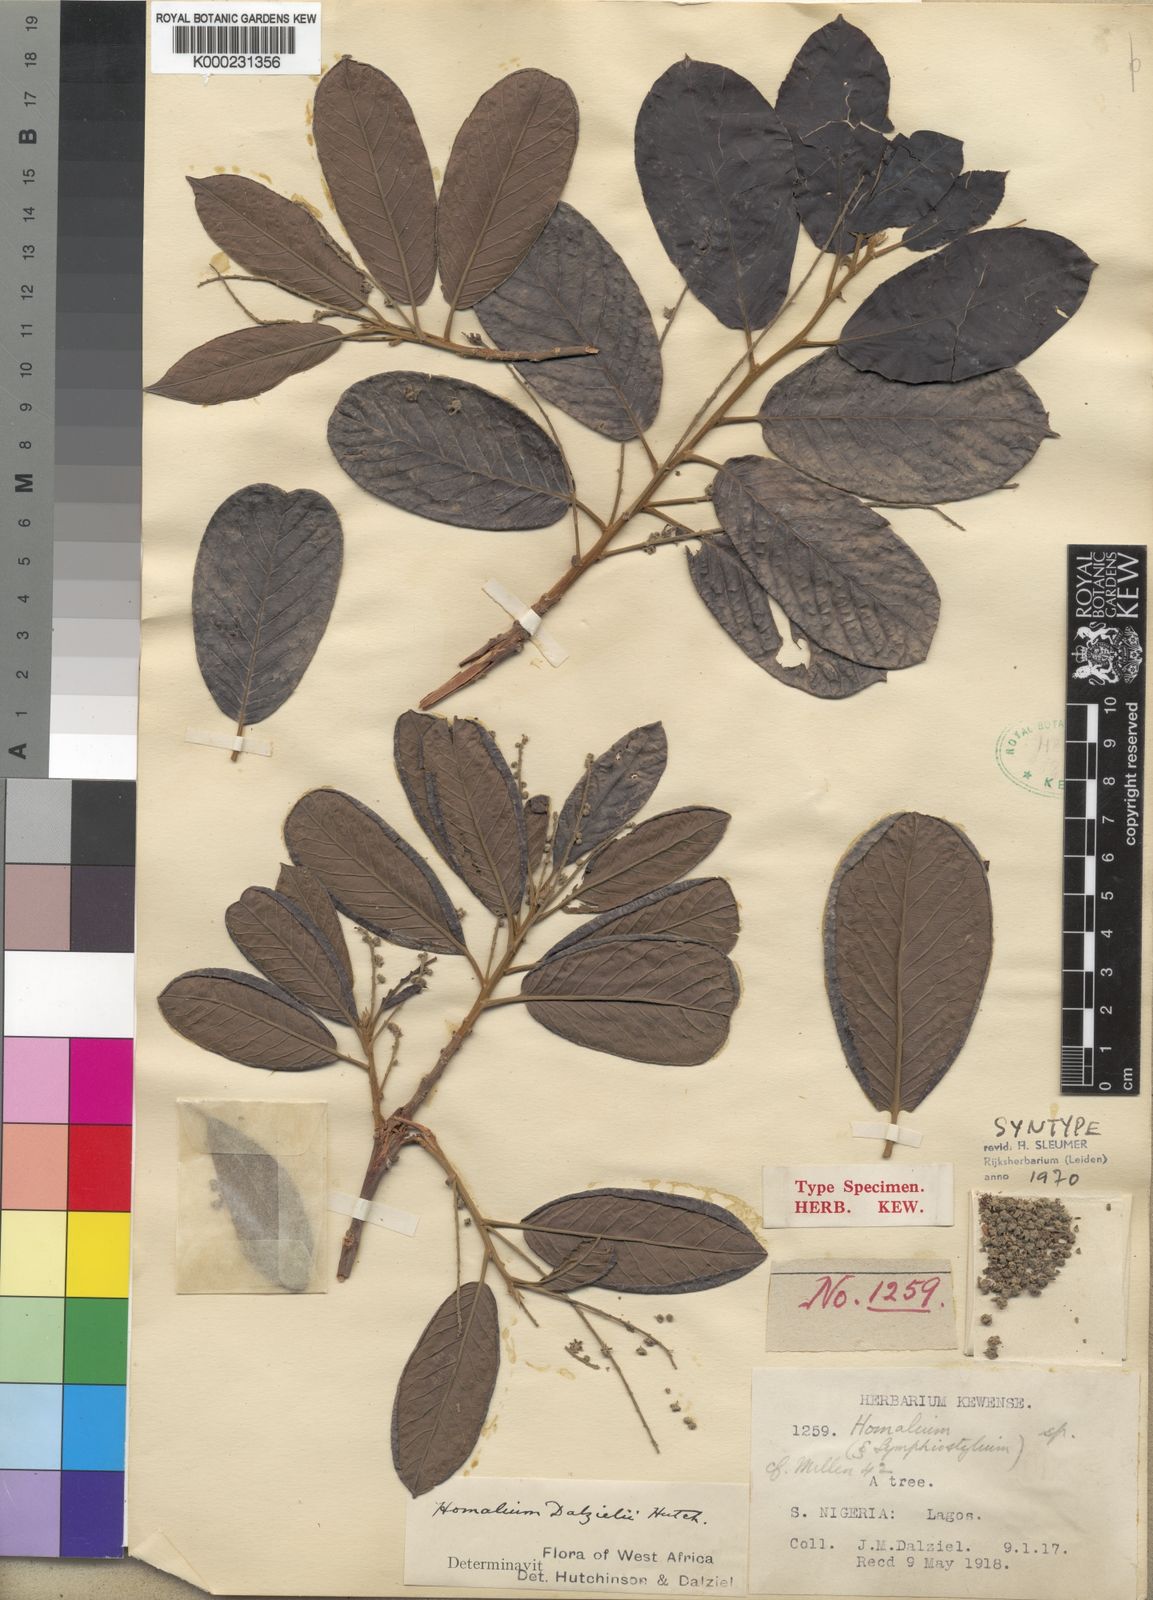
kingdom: Plantae
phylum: Tracheophyta
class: Magnoliopsida
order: Malpighiales
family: Salicaceae
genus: Homalium
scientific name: Homalium dalzielii
